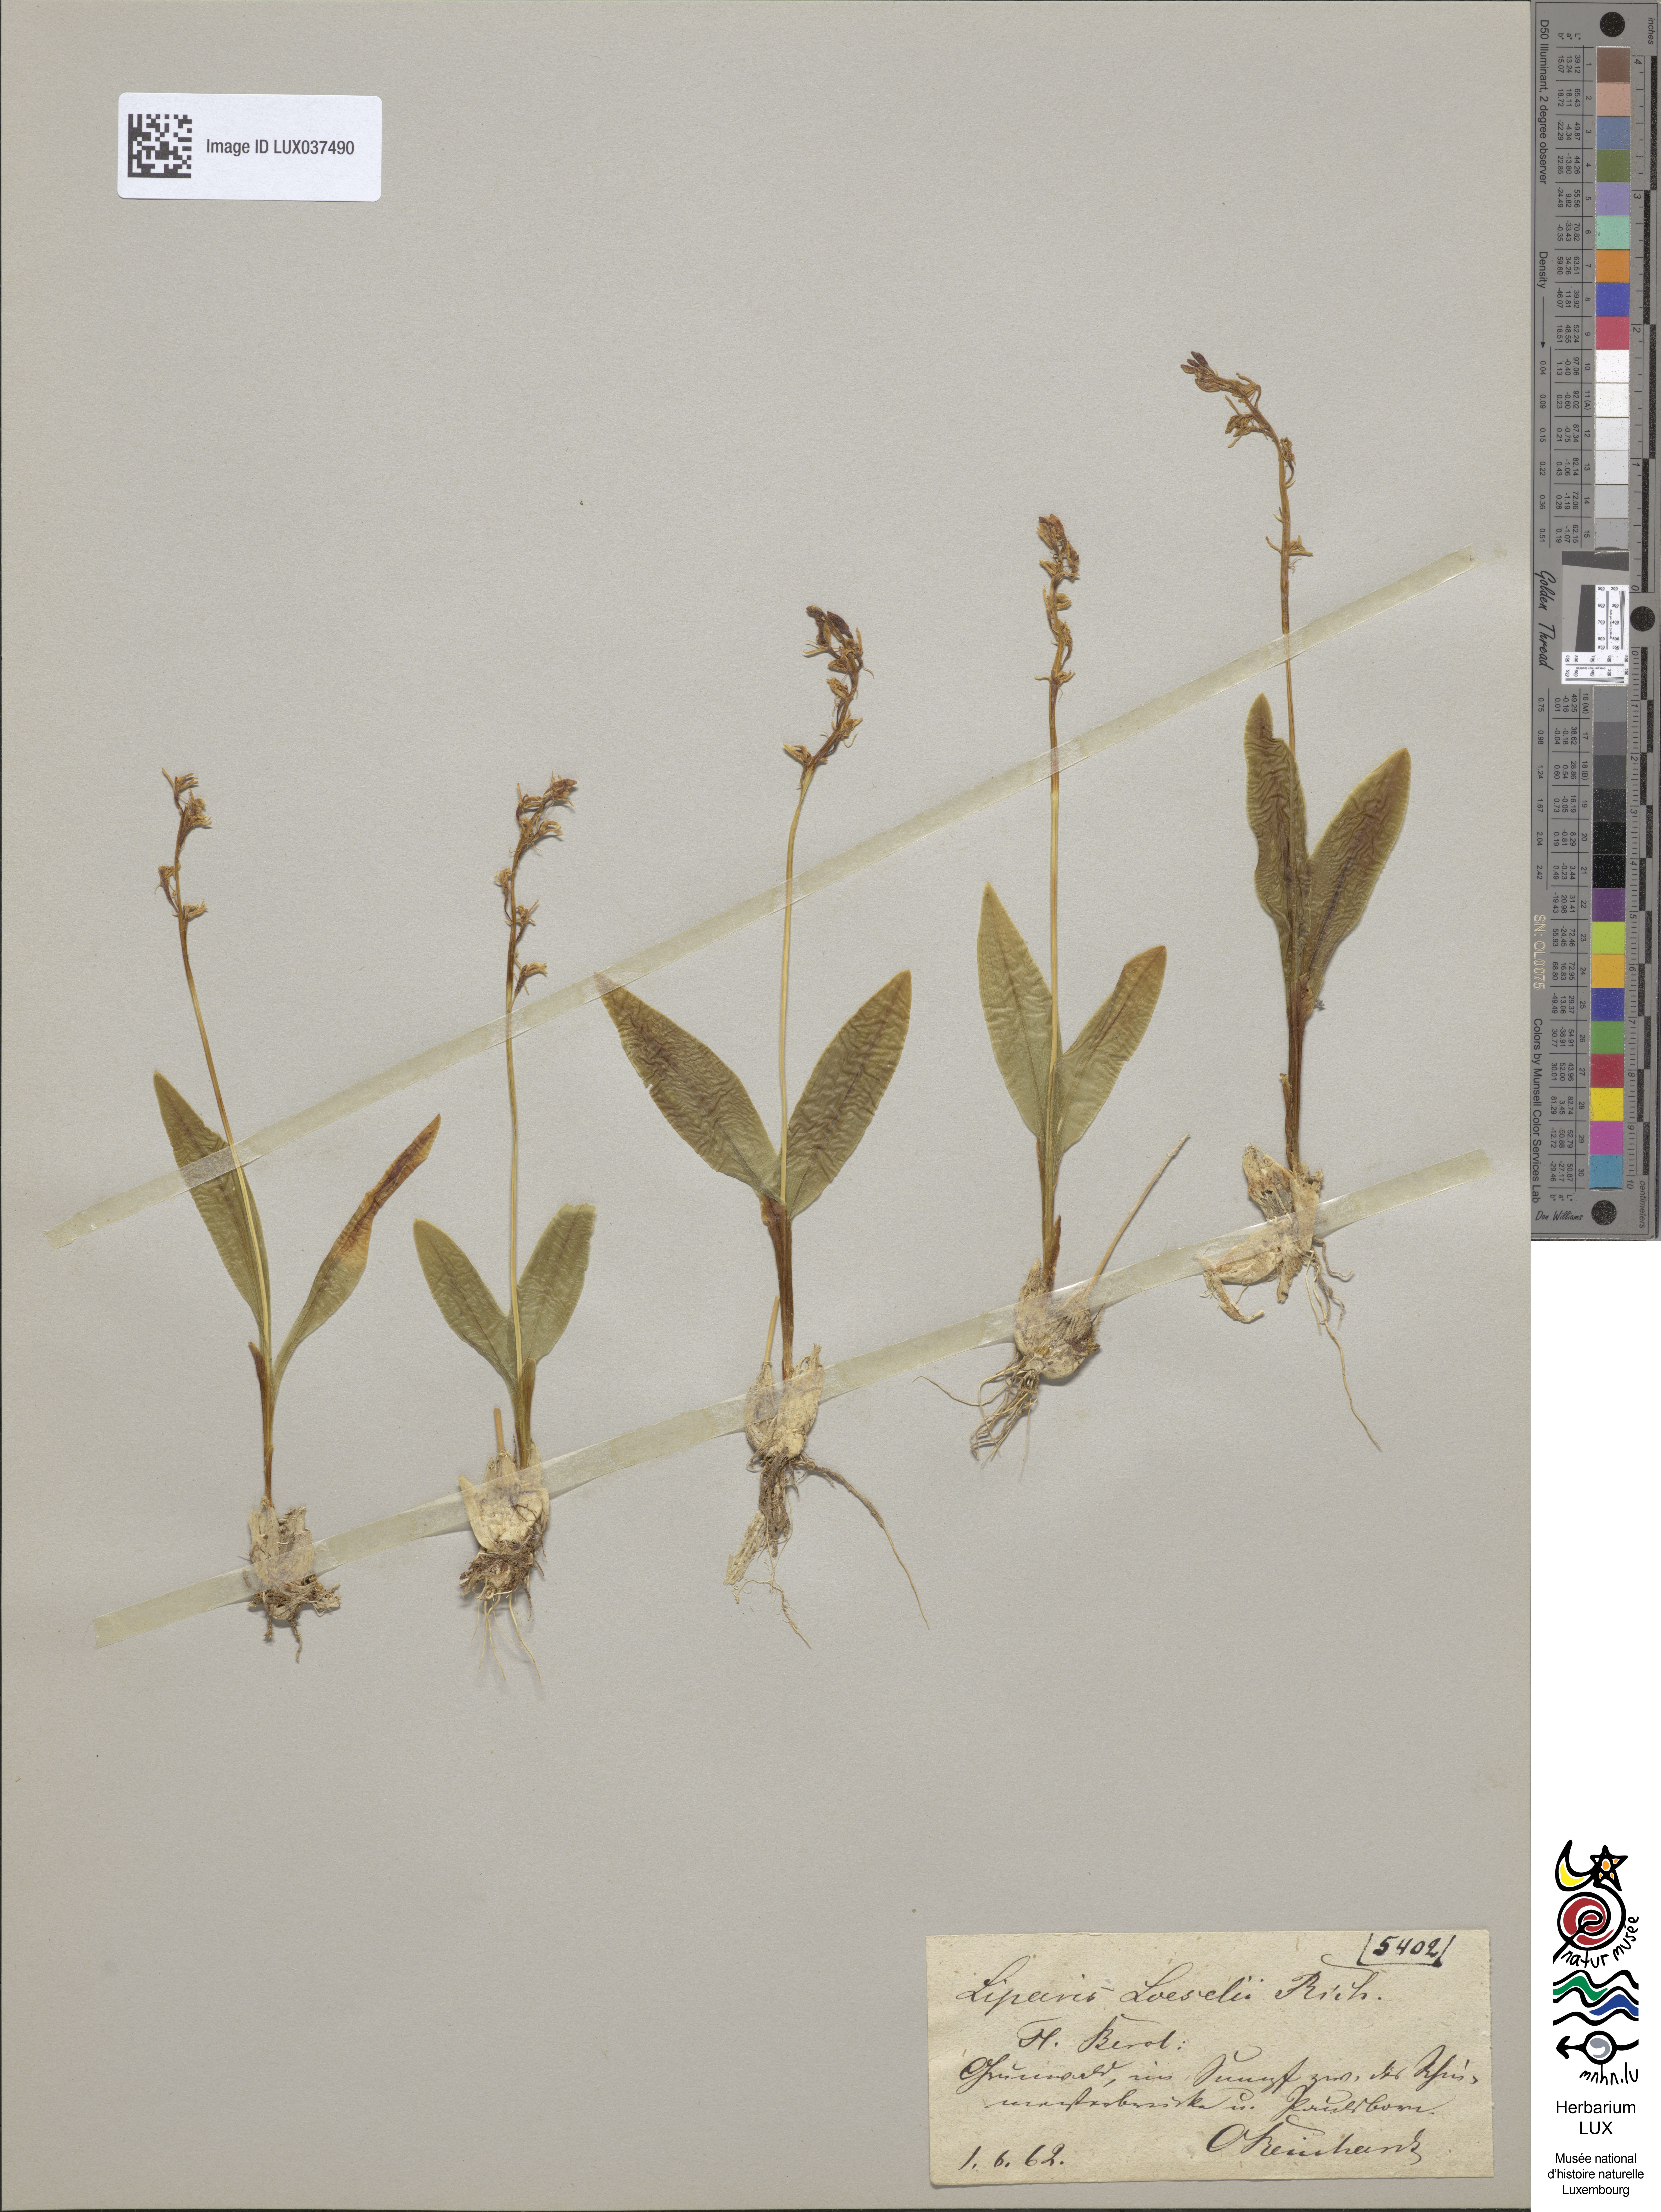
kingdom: Animalia
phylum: Arthropoda
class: Insecta
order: Coleoptera
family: Curculionidae
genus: Liparis
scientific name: Liparis loeselii
